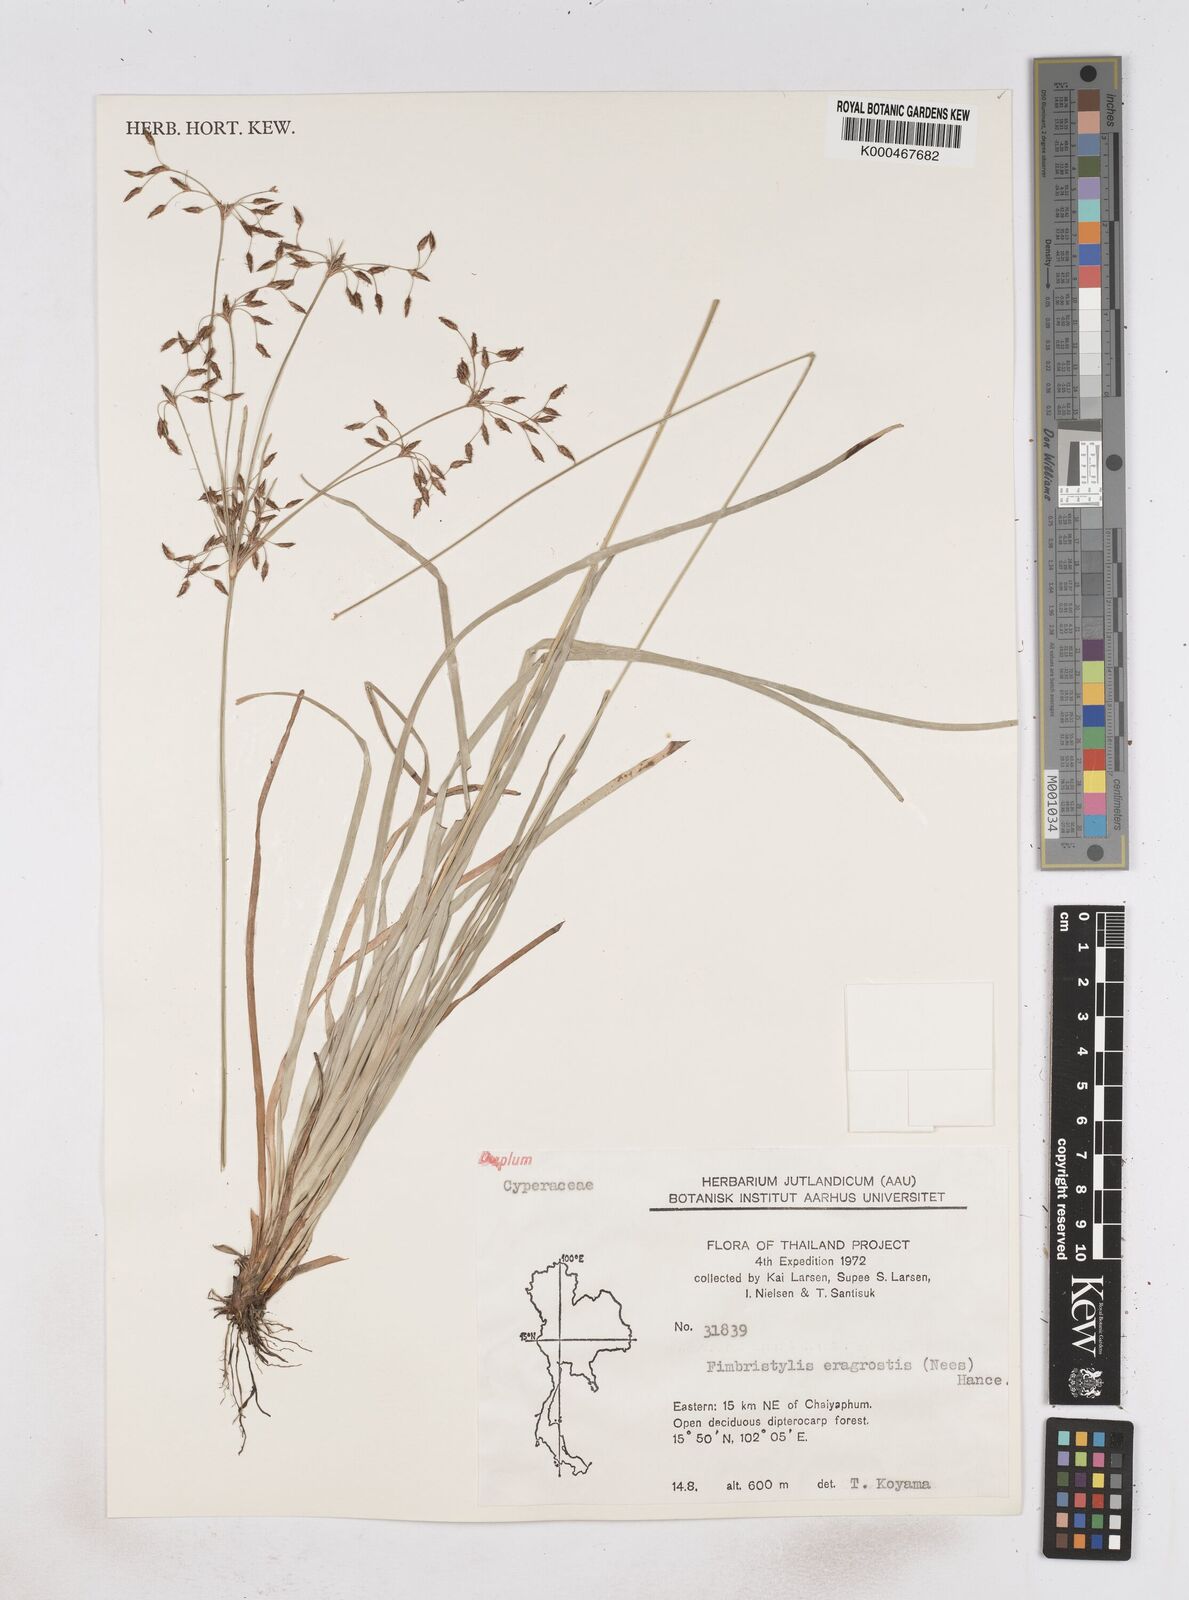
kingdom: Plantae
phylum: Tracheophyta
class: Liliopsida
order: Poales
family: Cyperaceae
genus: Fimbristylis
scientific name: Fimbristylis eragrostis
